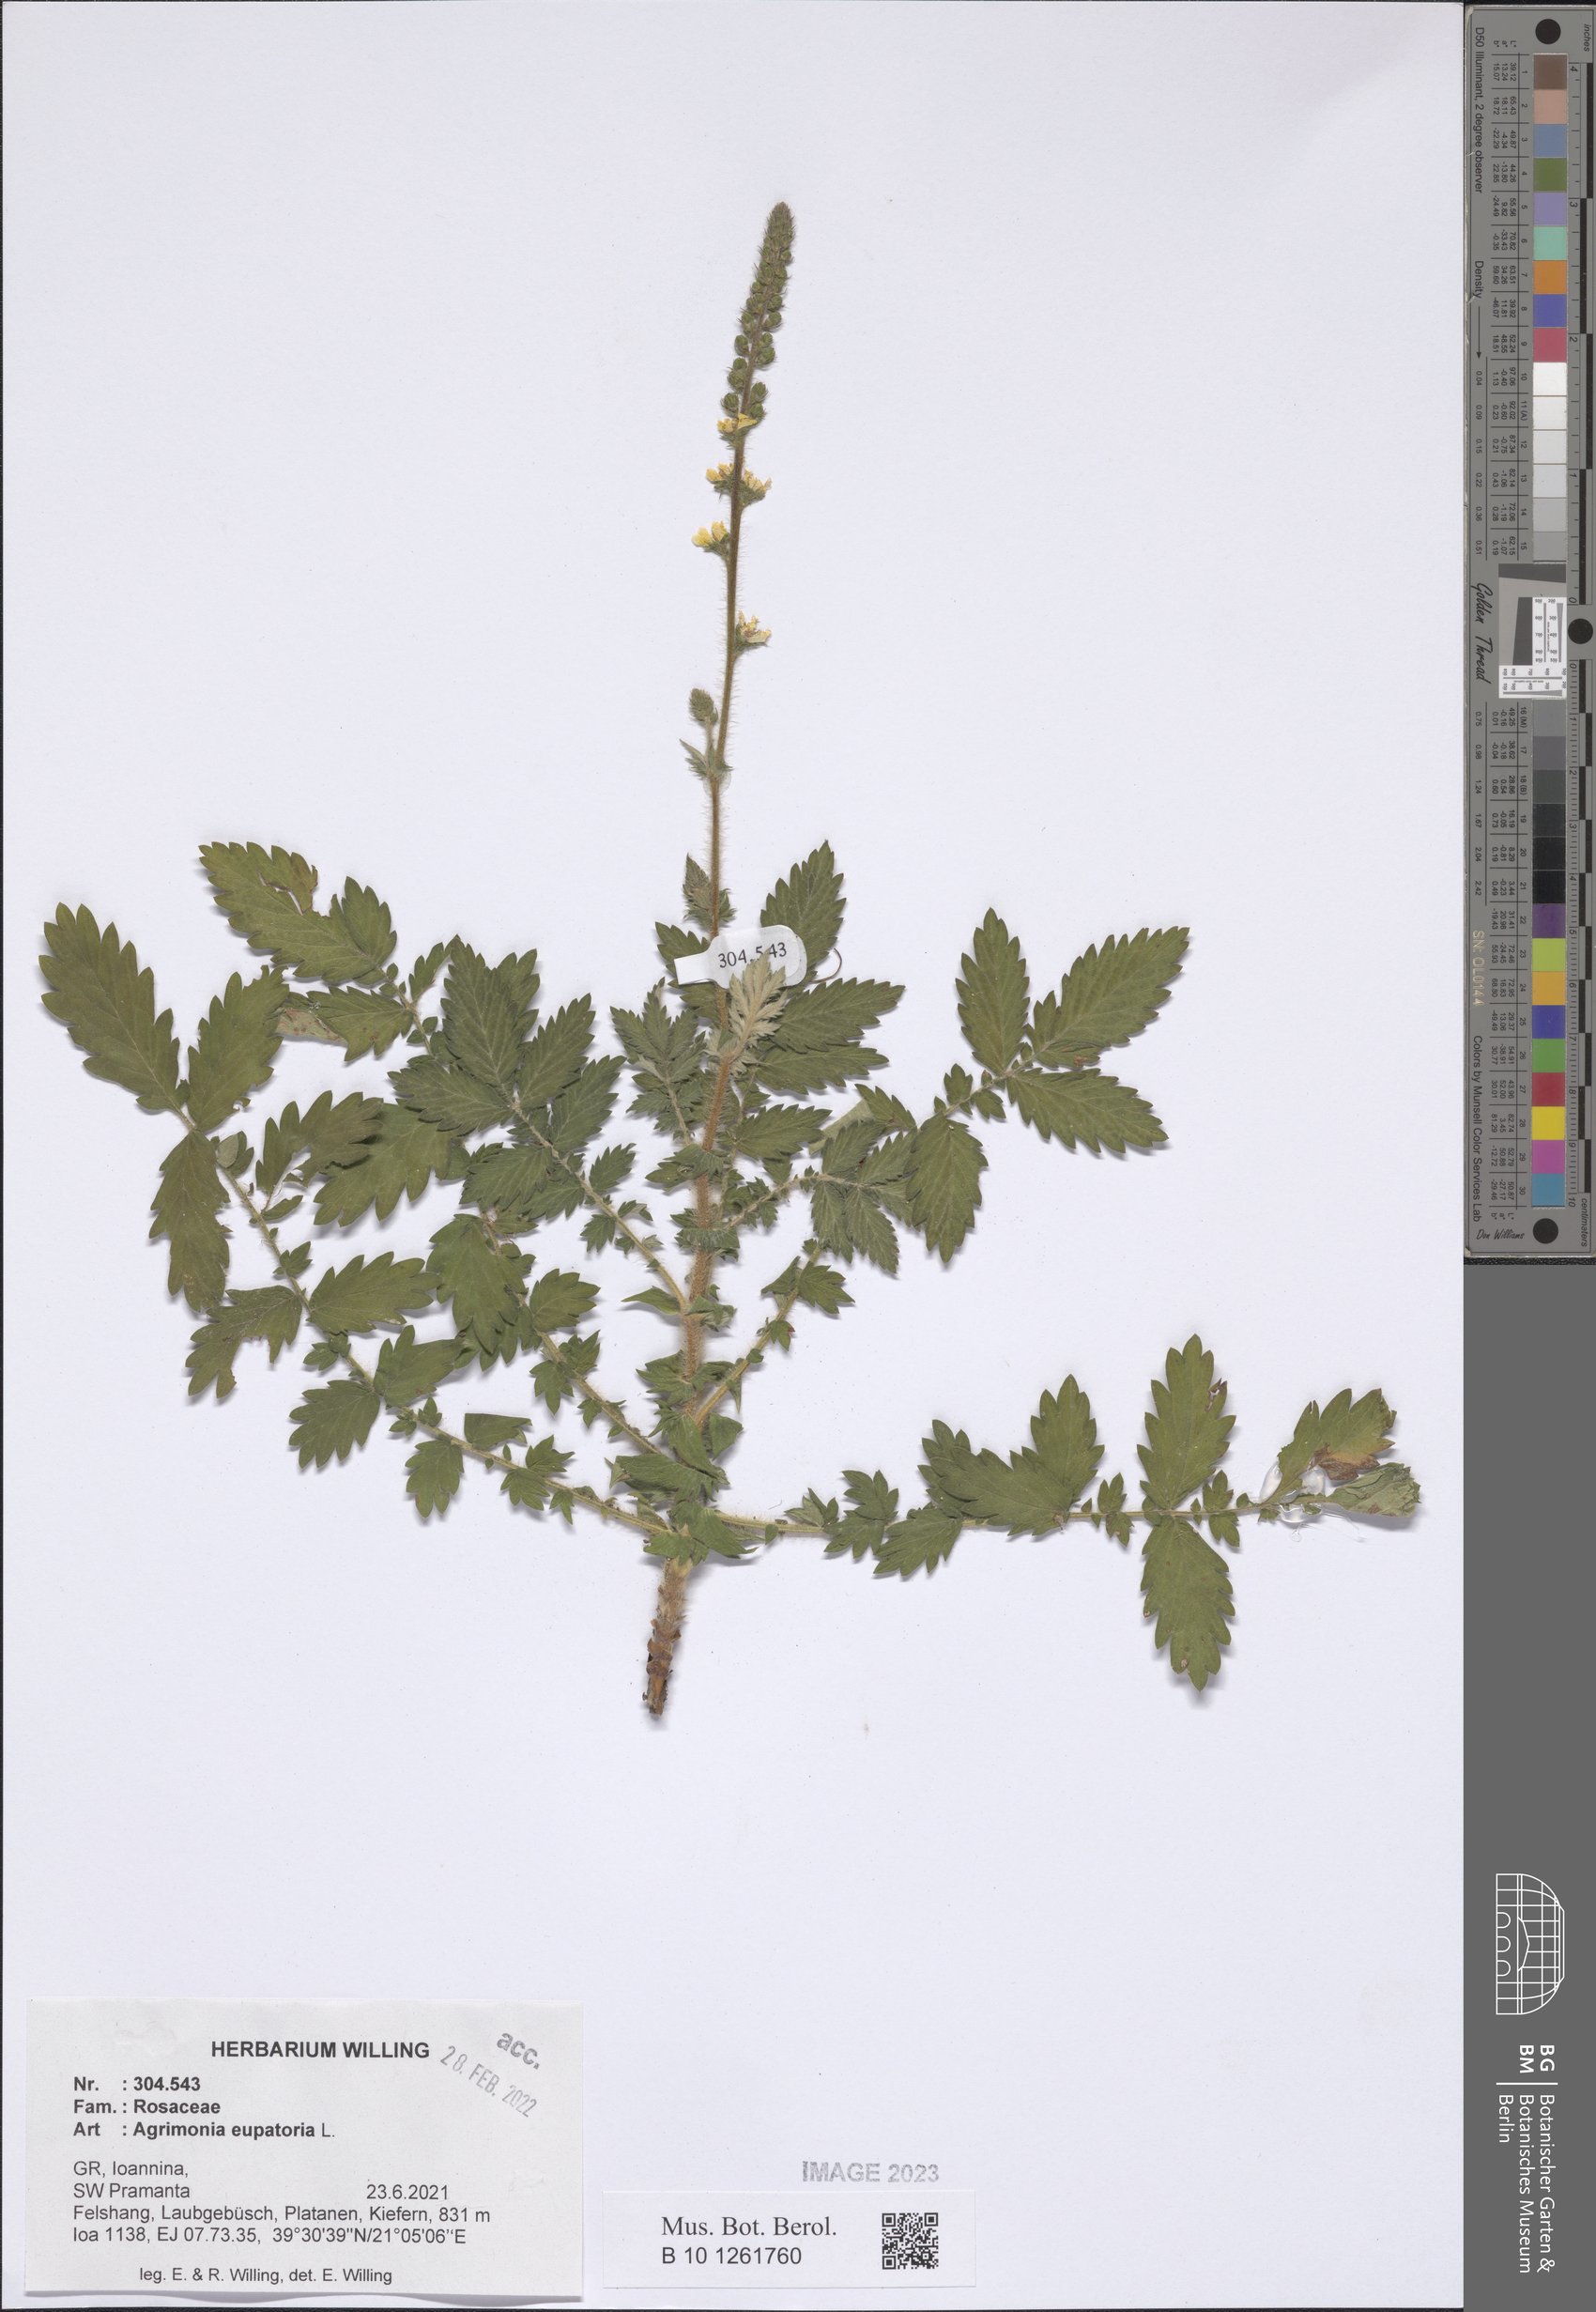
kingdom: Plantae
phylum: Tracheophyta
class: Magnoliopsida
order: Rosales
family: Rosaceae
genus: Agrimonia
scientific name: Agrimonia eupatoria
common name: Agrimony
